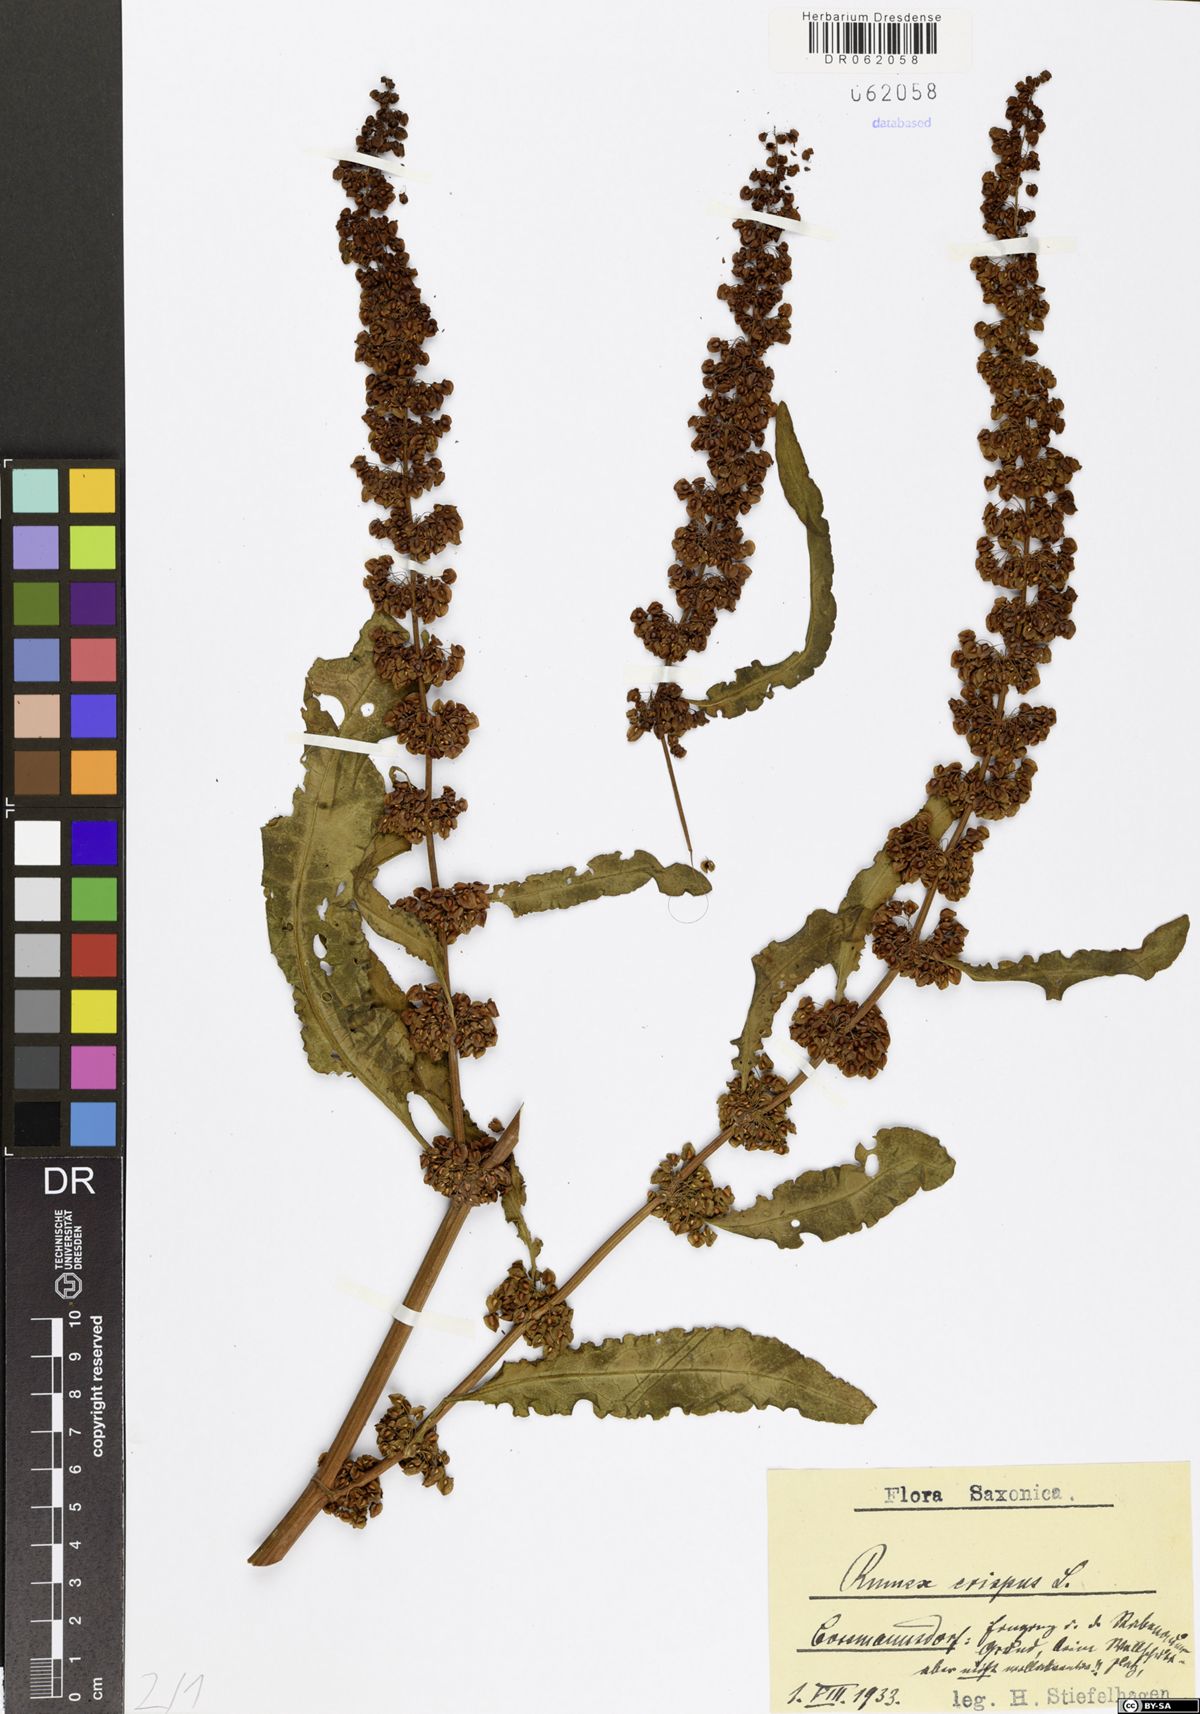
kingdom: Plantae
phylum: Tracheophyta
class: Magnoliopsida
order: Caryophyllales
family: Polygonaceae
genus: Rumex
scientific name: Rumex crispus
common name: Curled dock
